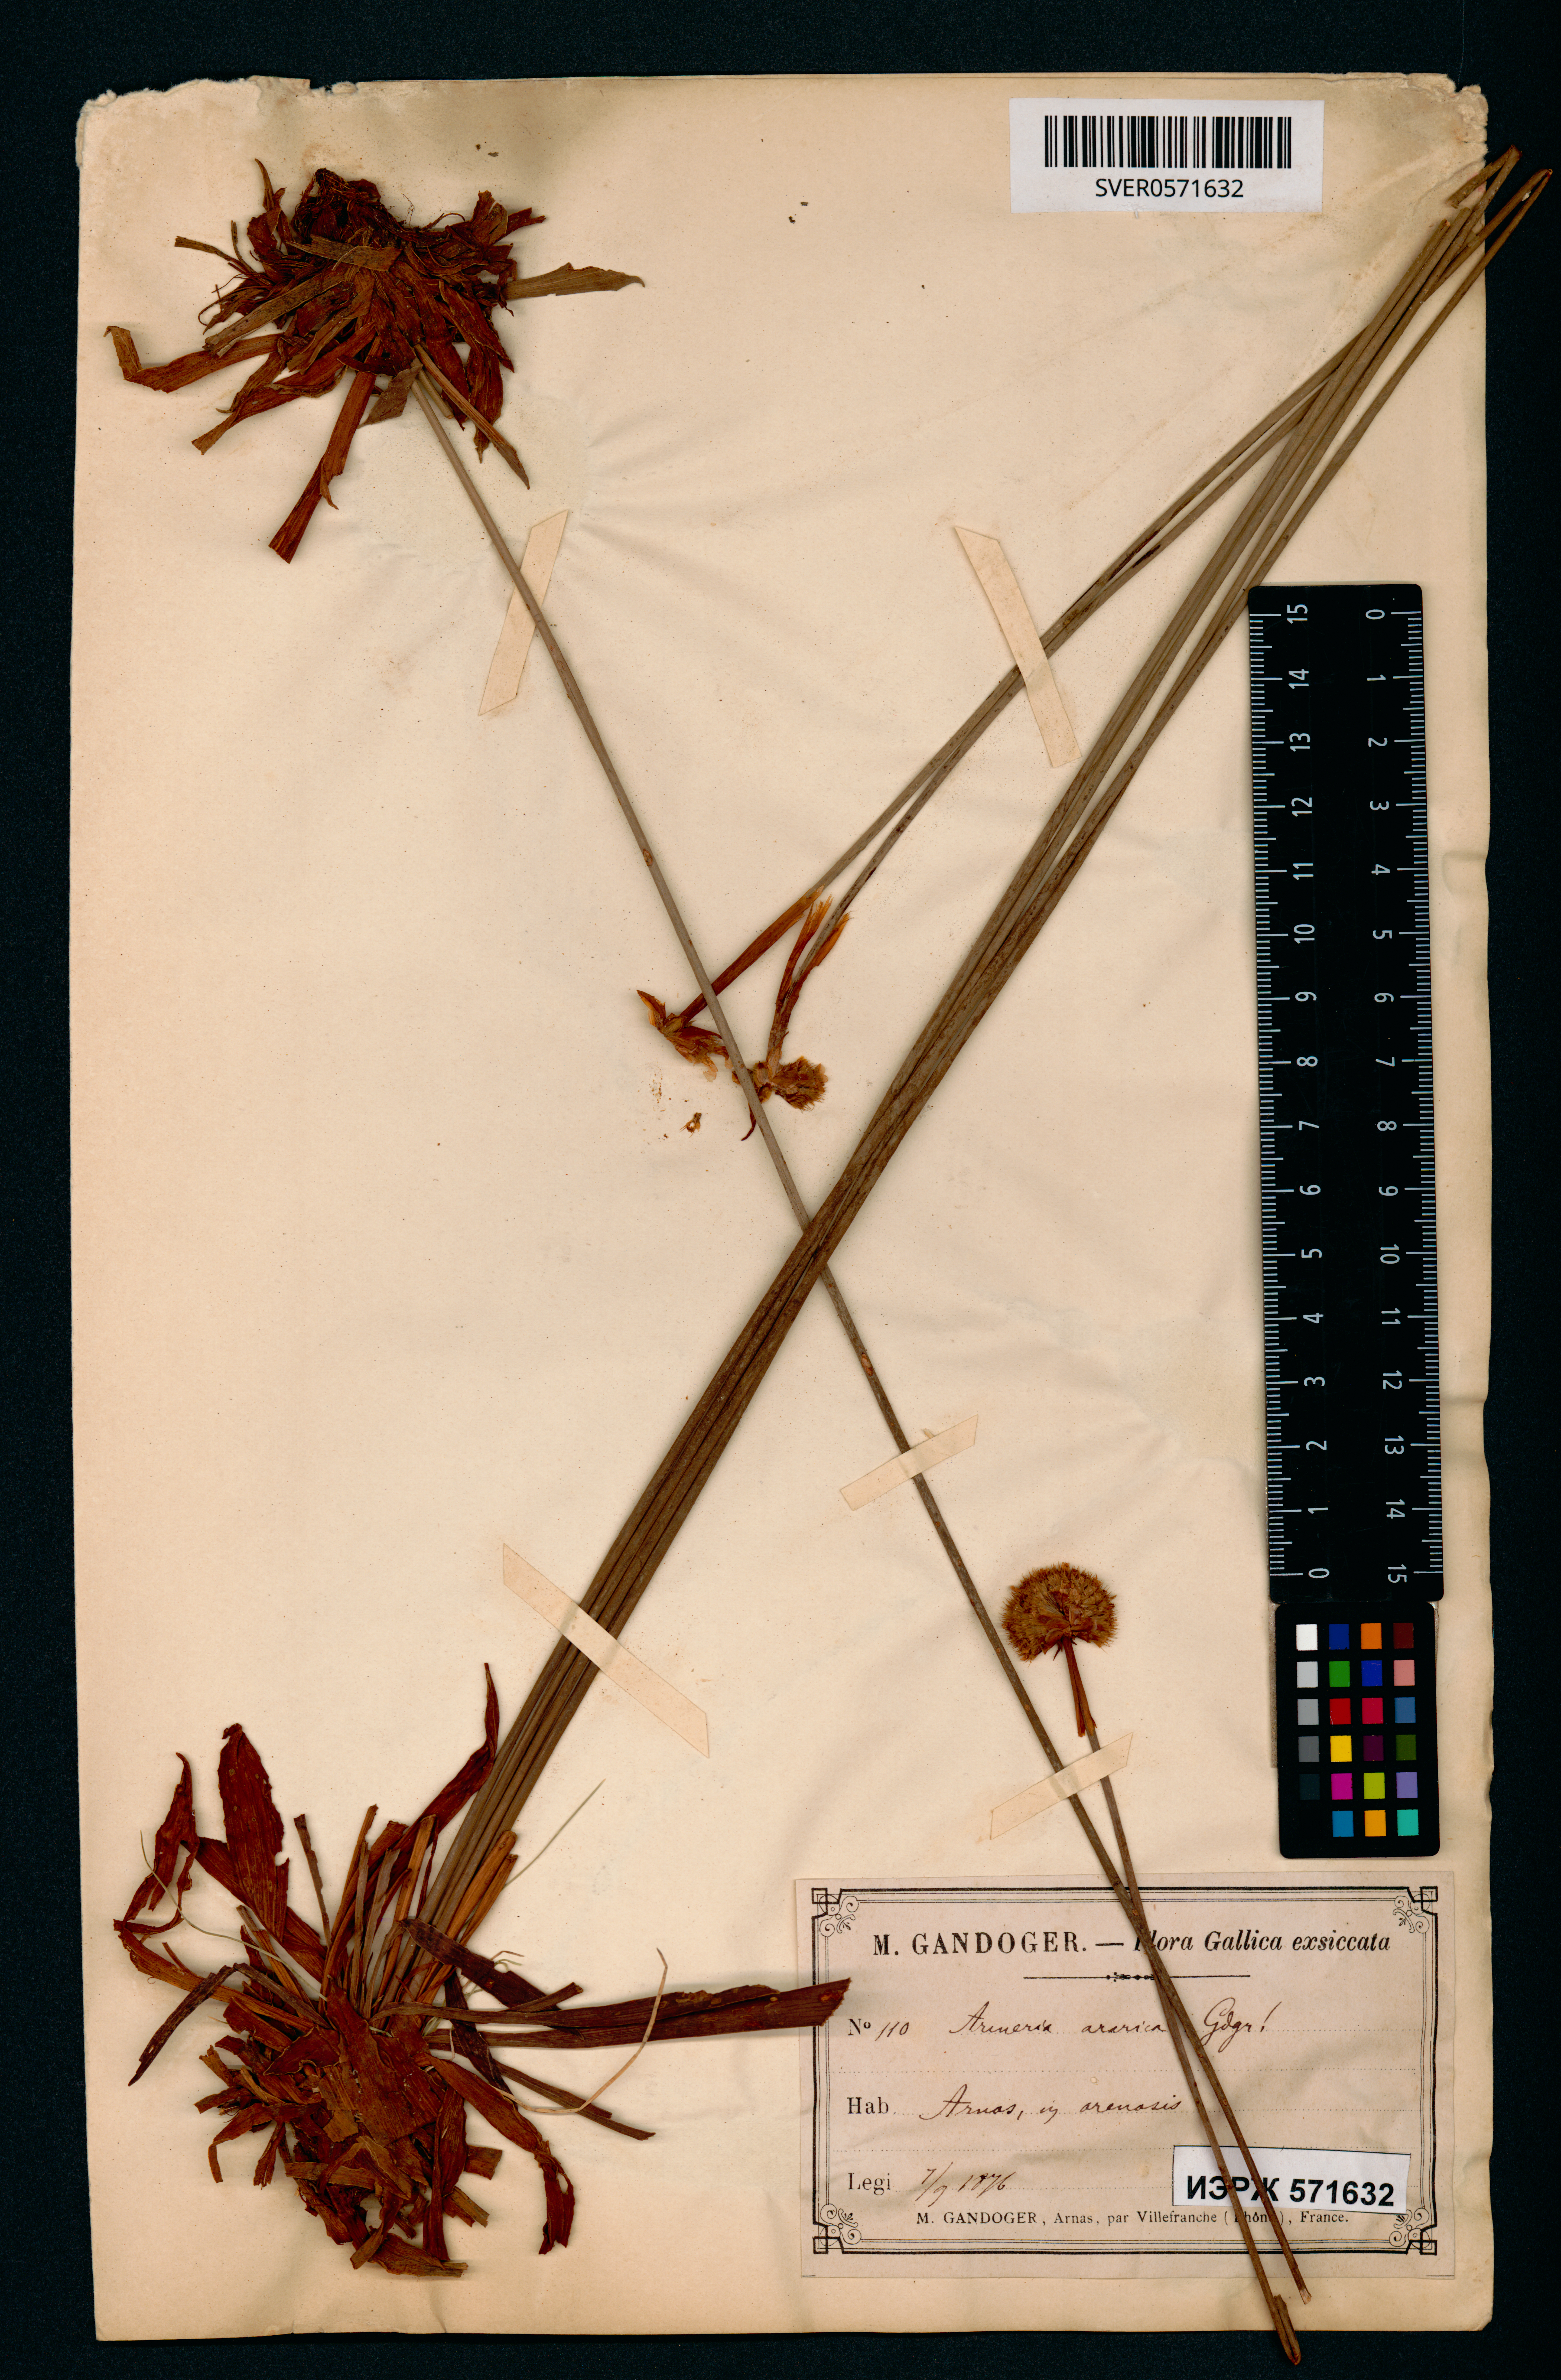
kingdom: Plantae
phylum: Tracheophyta
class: Magnoliopsida
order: Caryophyllales
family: Plumbaginaceae
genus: Armeria
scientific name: Armeria maritima
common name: Thrift
